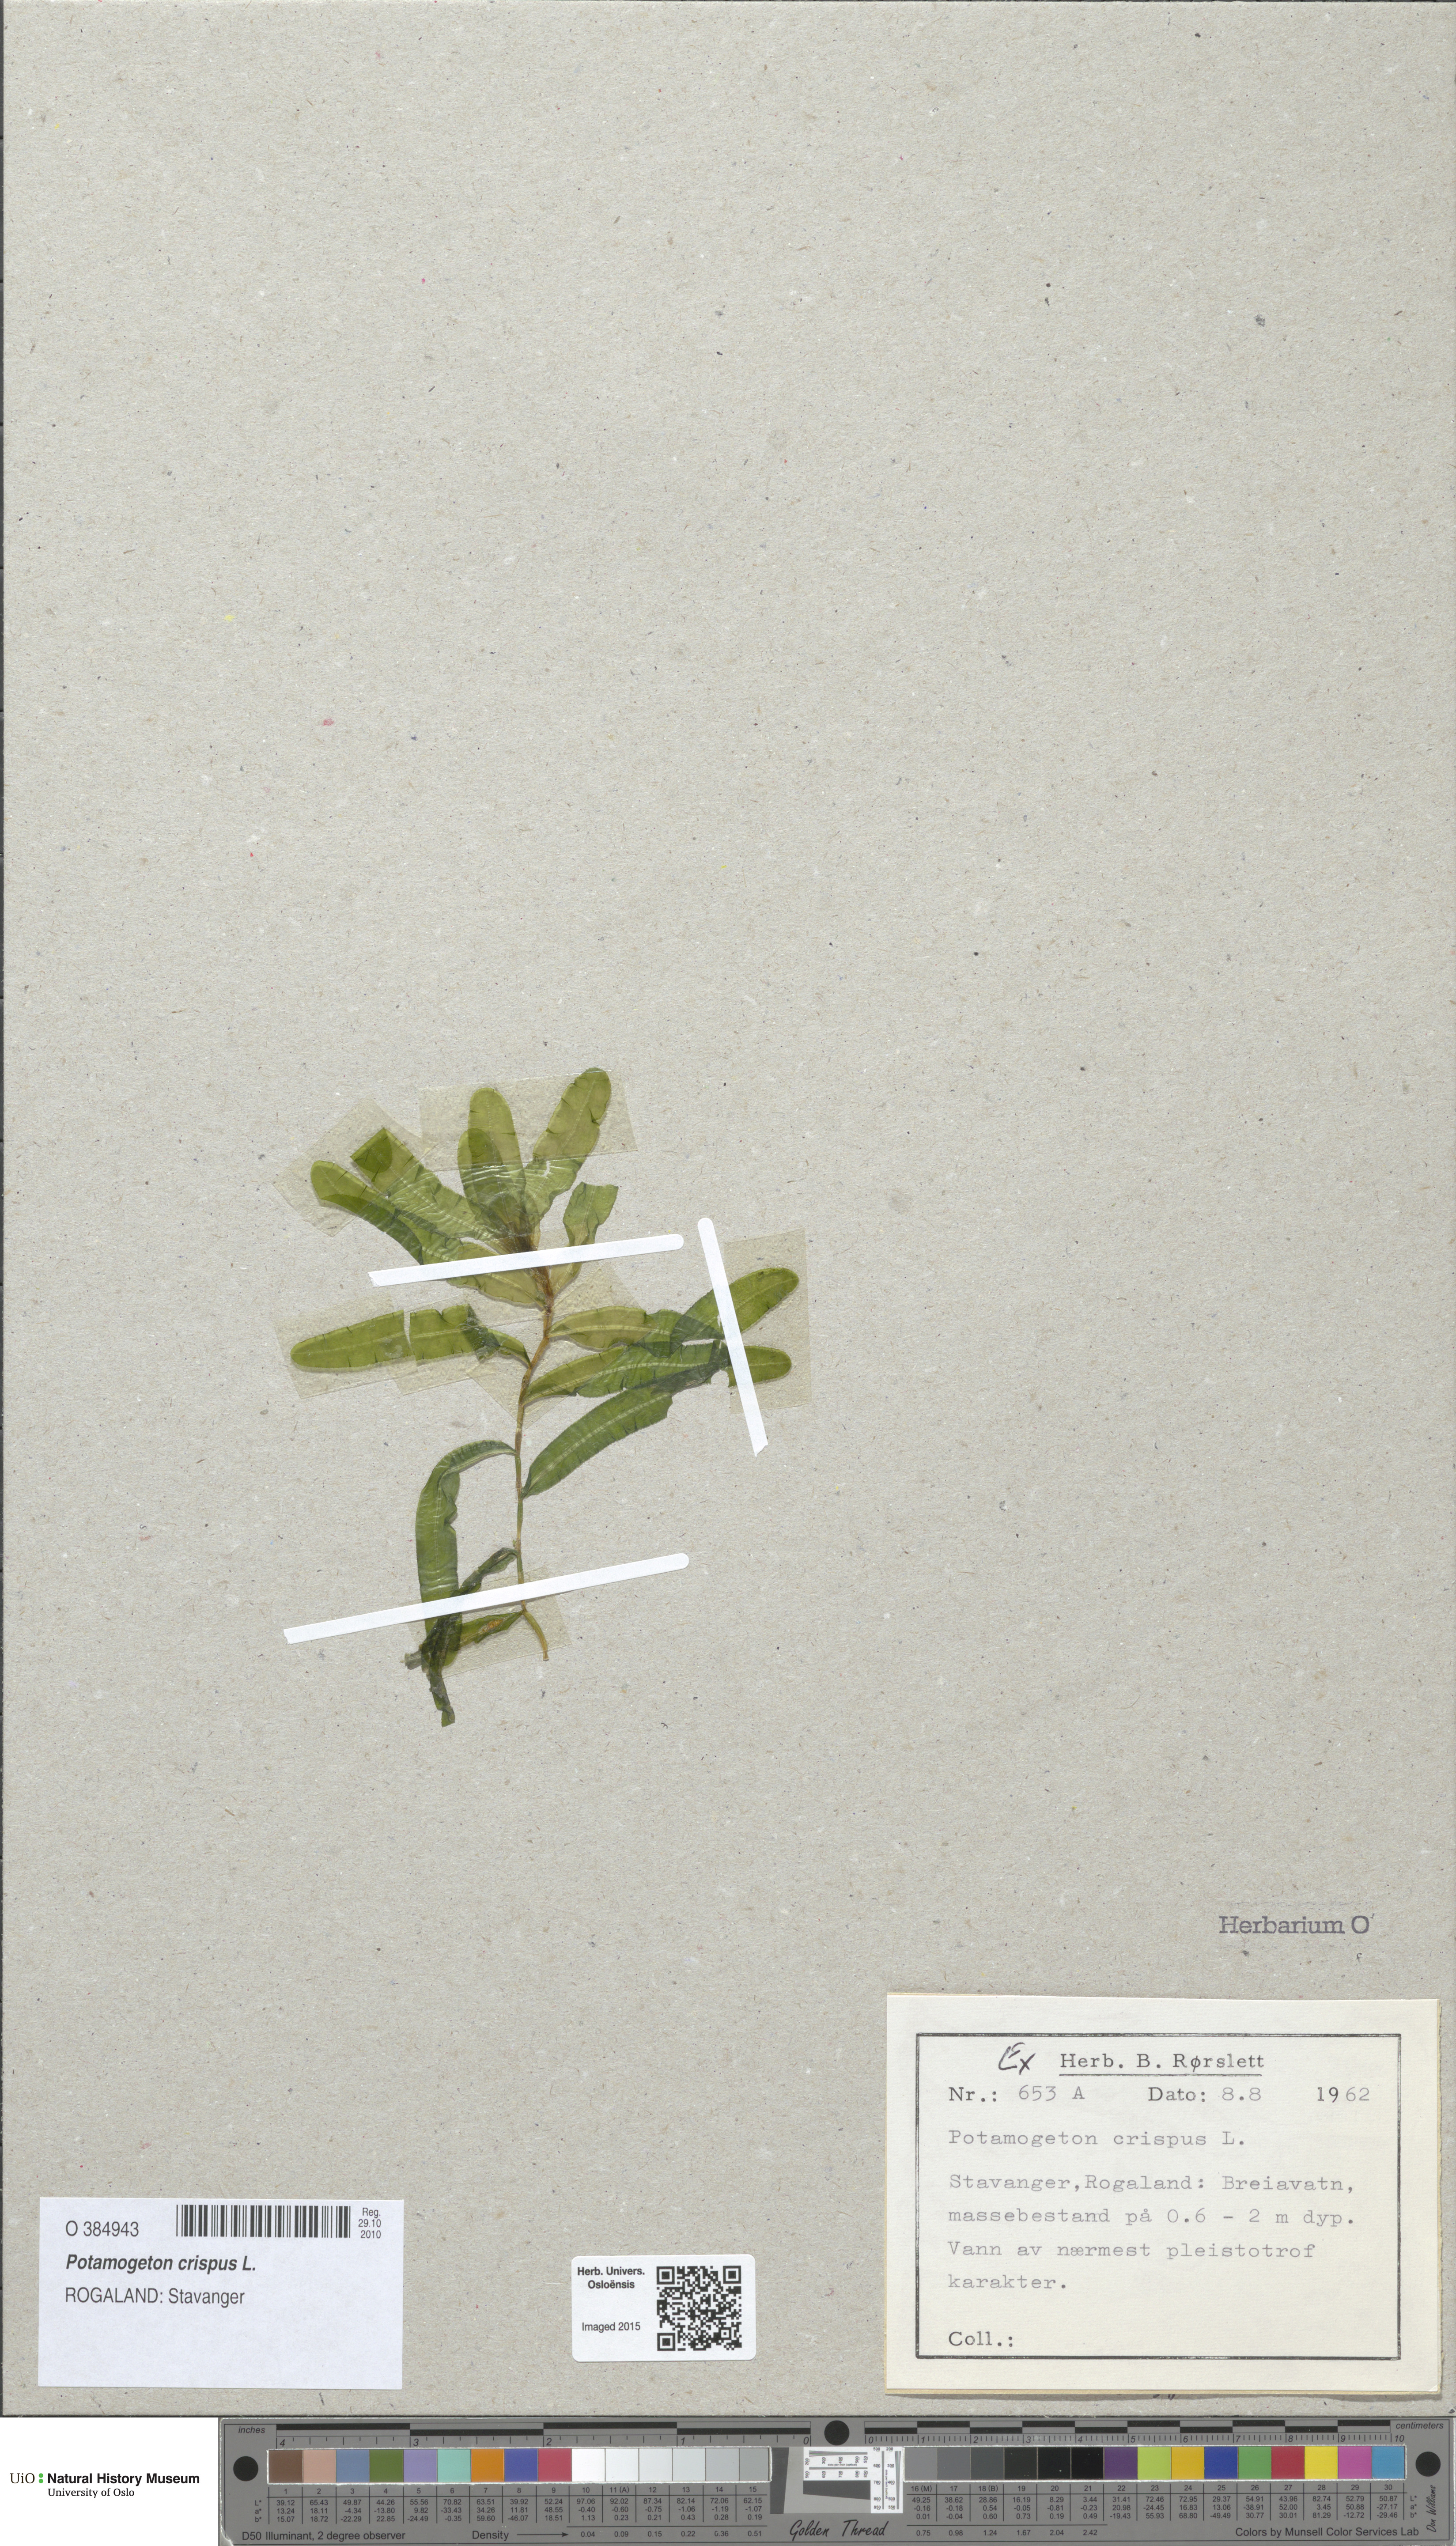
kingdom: Plantae
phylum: Tracheophyta
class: Liliopsida
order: Alismatales
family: Potamogetonaceae
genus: Potamogeton
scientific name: Potamogeton crispus
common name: Curled pondweed
